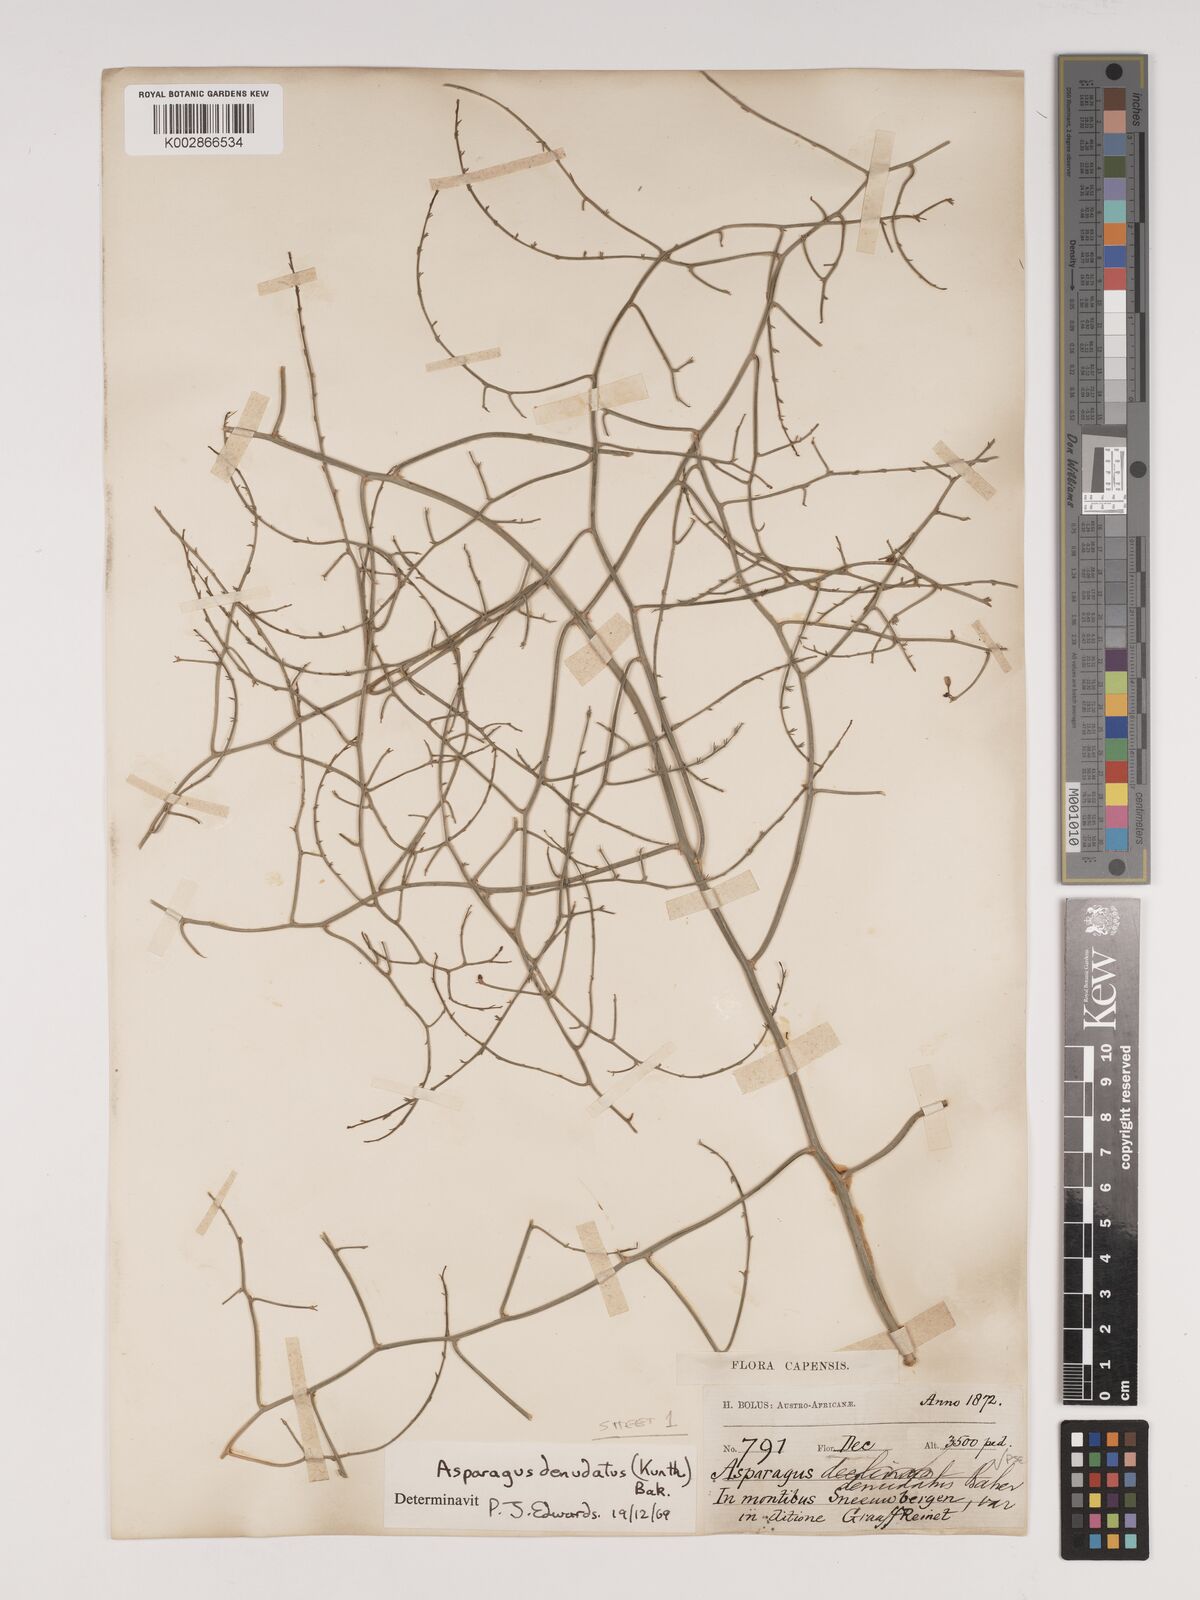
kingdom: Plantae
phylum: Tracheophyta
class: Liliopsida
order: Asparagales
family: Asparagaceae
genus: Asparagus
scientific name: Asparagus denudatus
